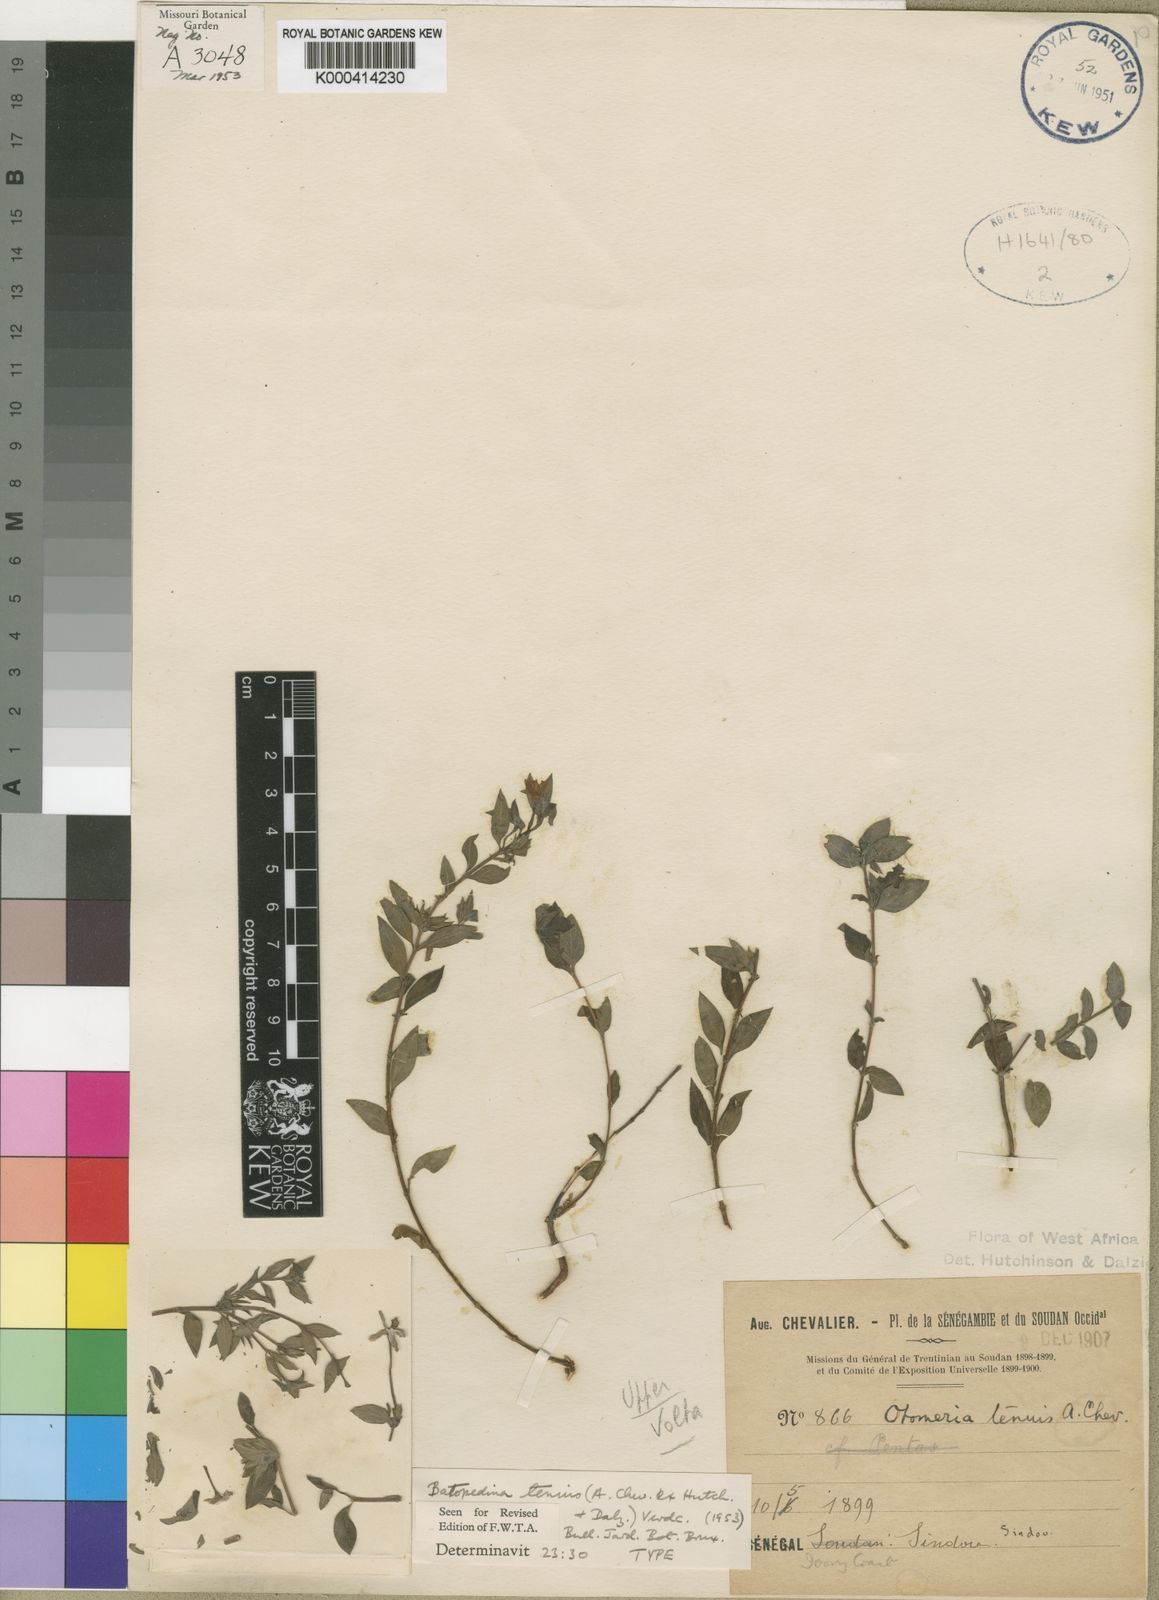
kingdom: Plantae
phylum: Tracheophyta
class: Magnoliopsida
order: Gentianales
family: Rubiaceae
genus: Batopedina
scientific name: Batopedina tenuis
